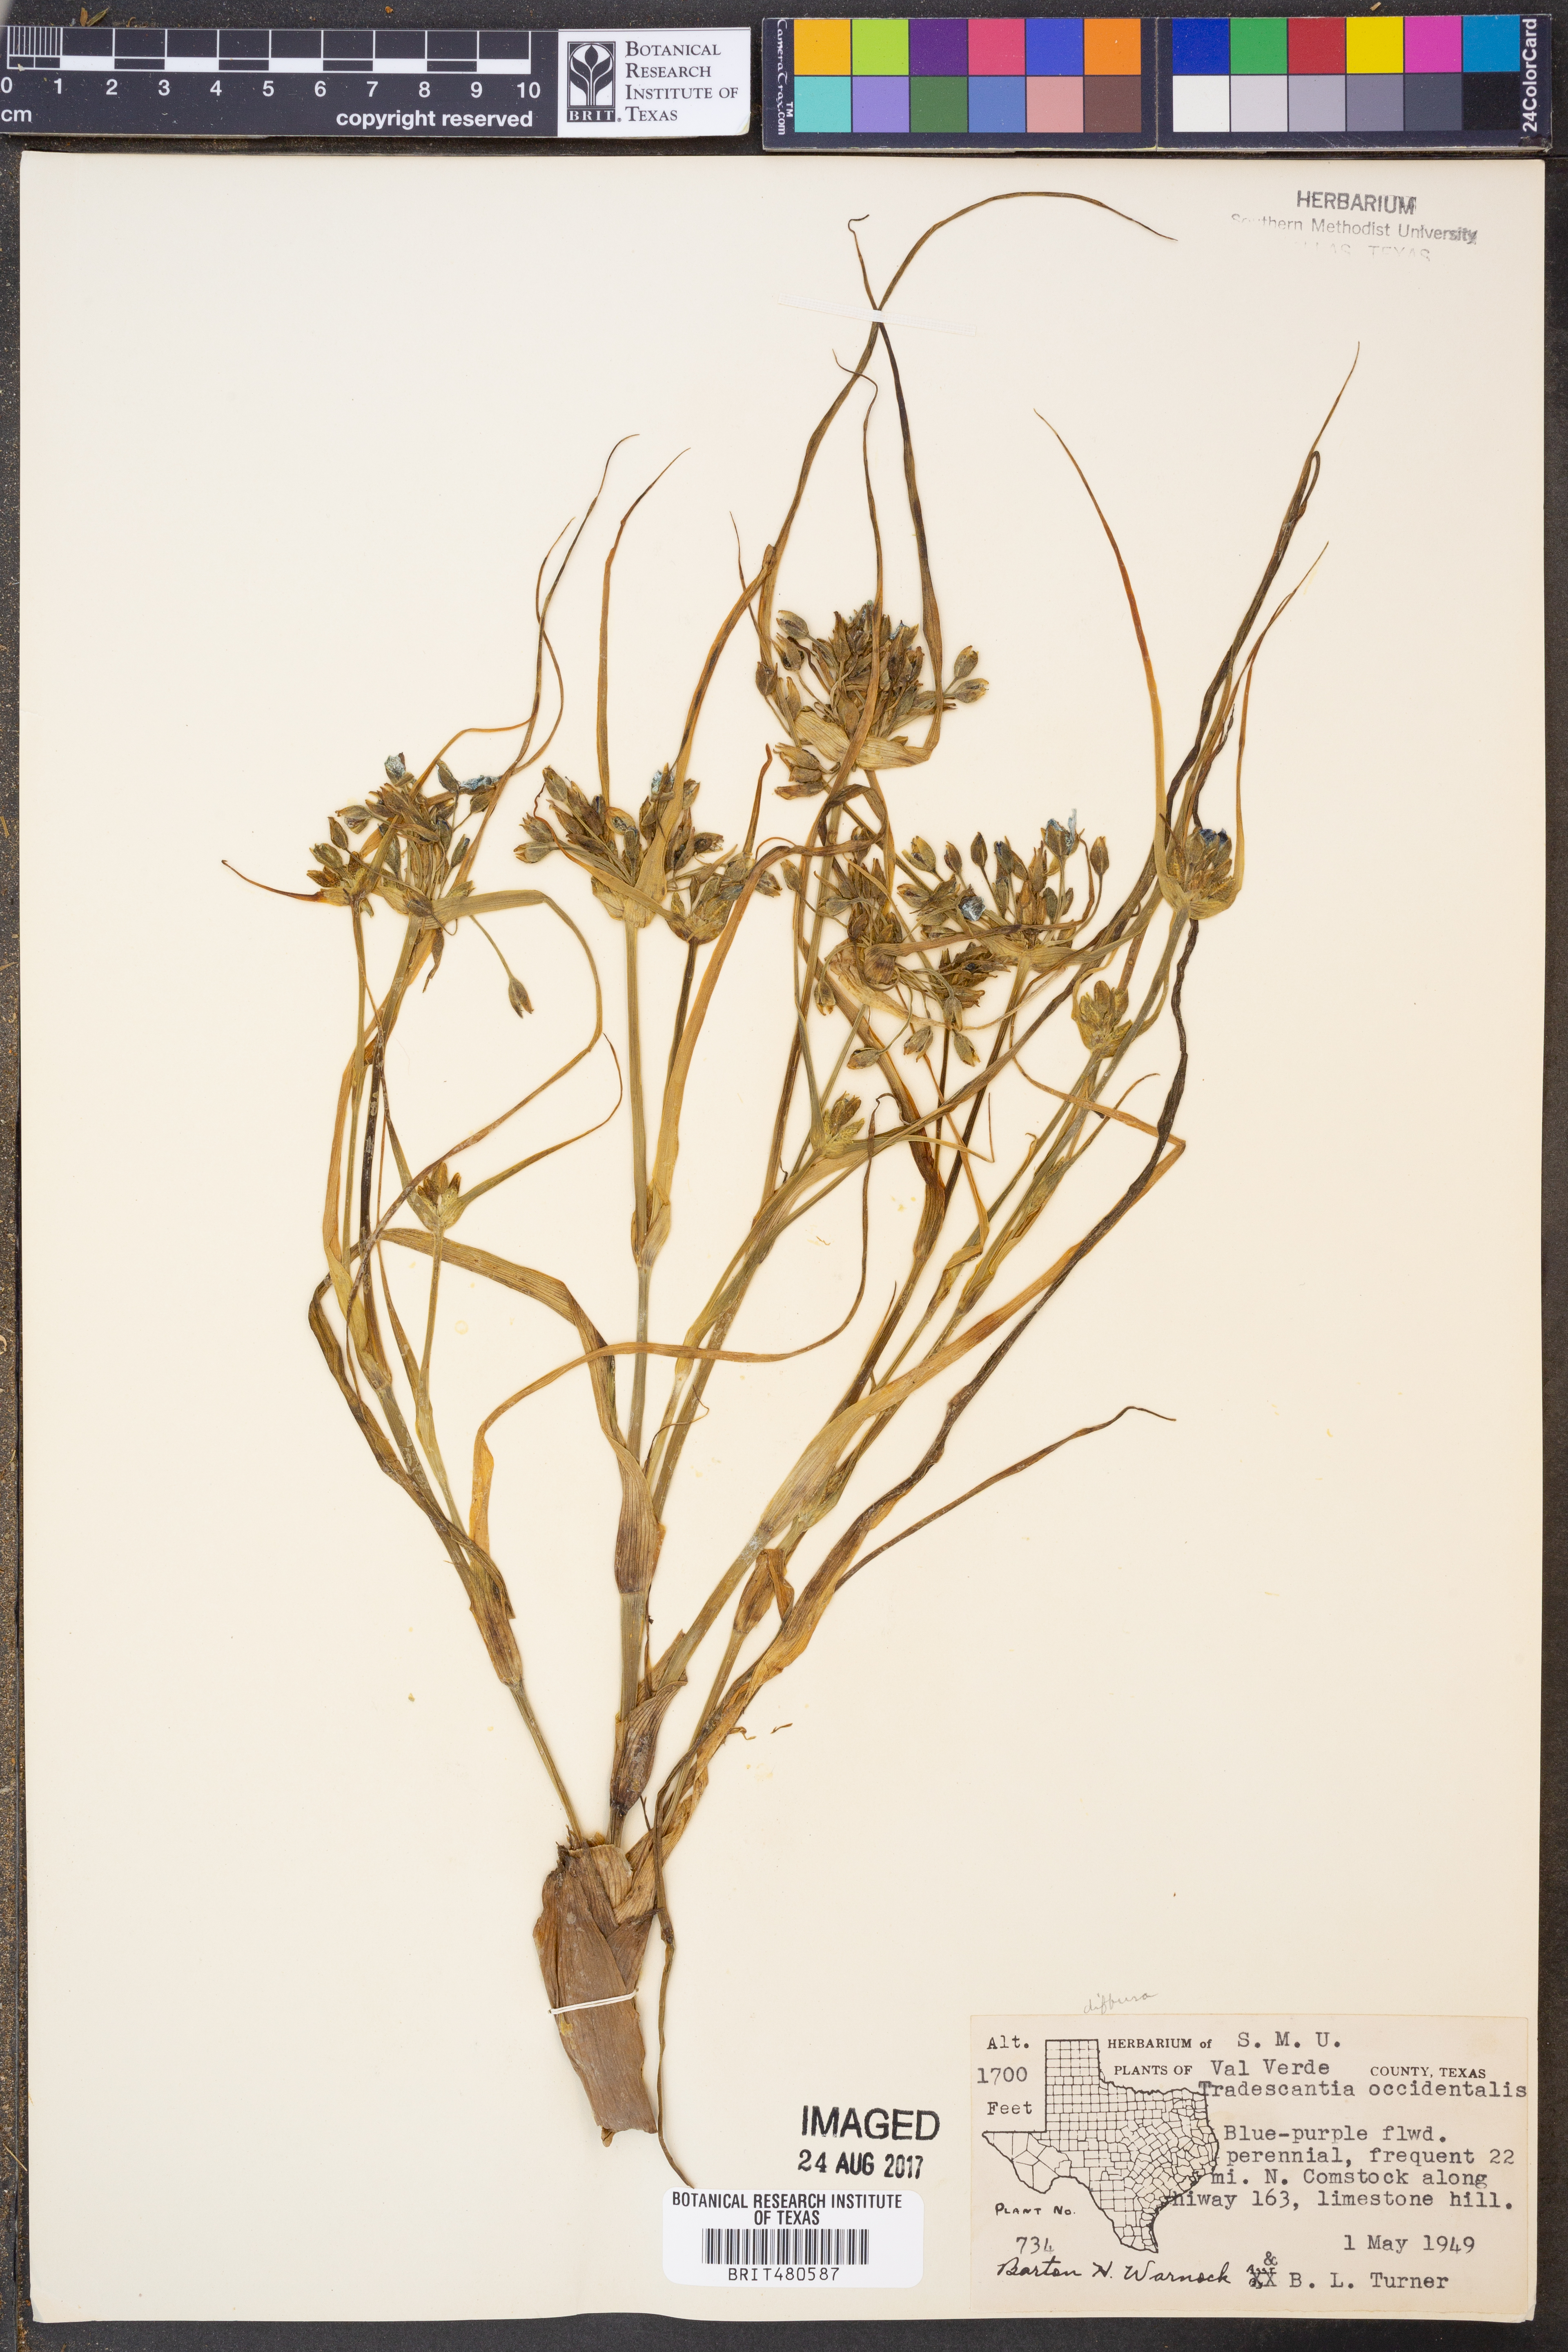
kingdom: Plantae
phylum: Tracheophyta
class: Liliopsida
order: Commelinales
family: Commelinaceae
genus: Tradescantia
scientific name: Tradescantia occidentalis
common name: Prairie spiderwort
